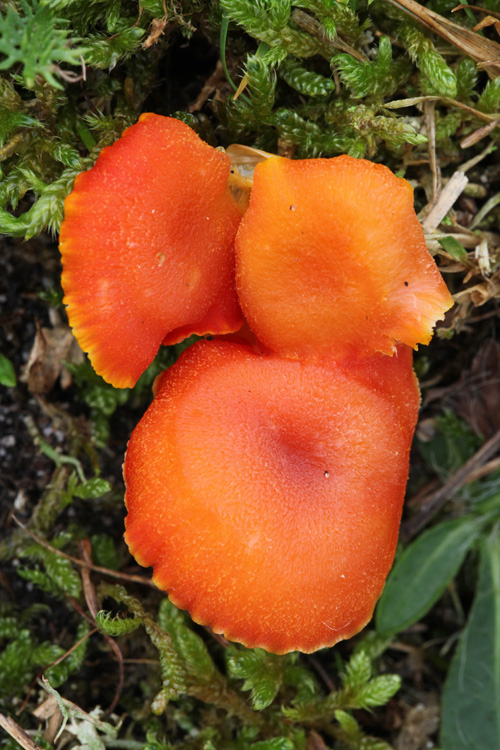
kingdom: Fungi
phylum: Basidiomycota
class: Agaricomycetes
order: Agaricales
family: Hygrophoraceae
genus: Hygrocybe
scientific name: Hygrocybe miniata
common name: mønje-vokshat
